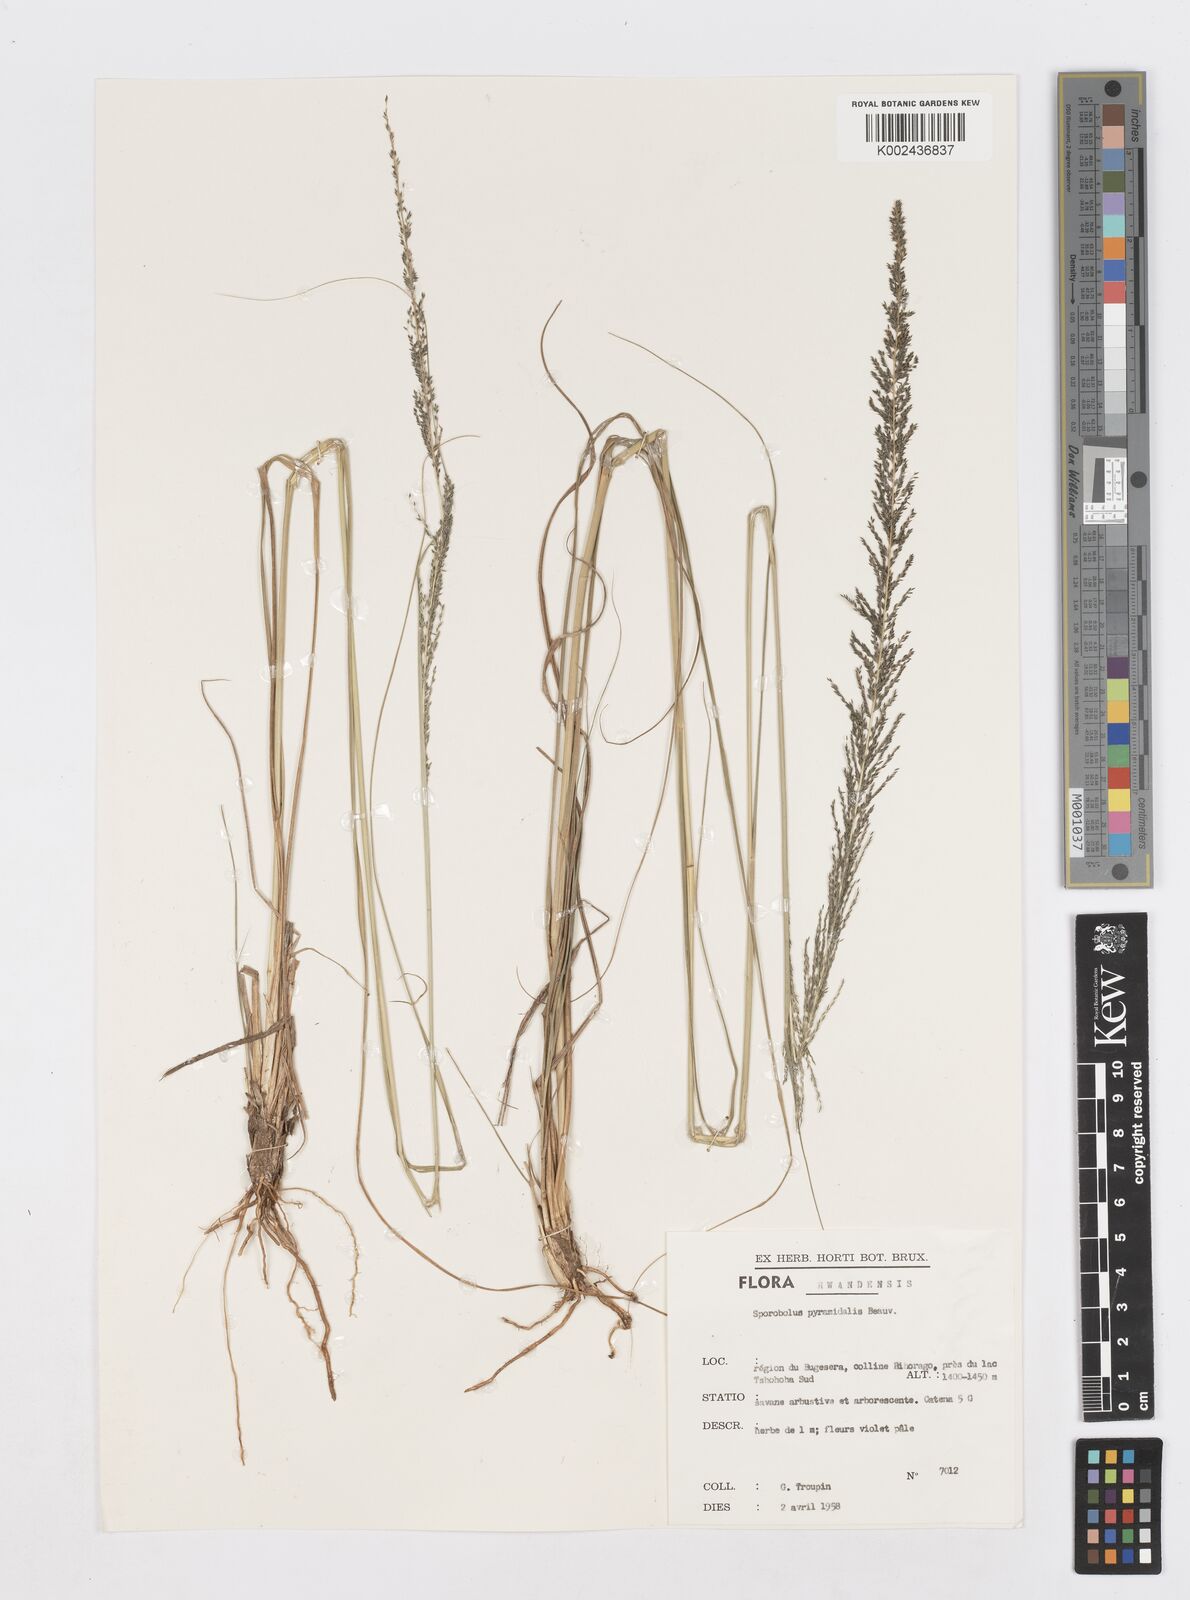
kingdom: Plantae
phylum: Tracheophyta
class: Liliopsida
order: Poales
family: Poaceae
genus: Sporobolus
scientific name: Sporobolus pyramidalis
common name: West indian dropseed
